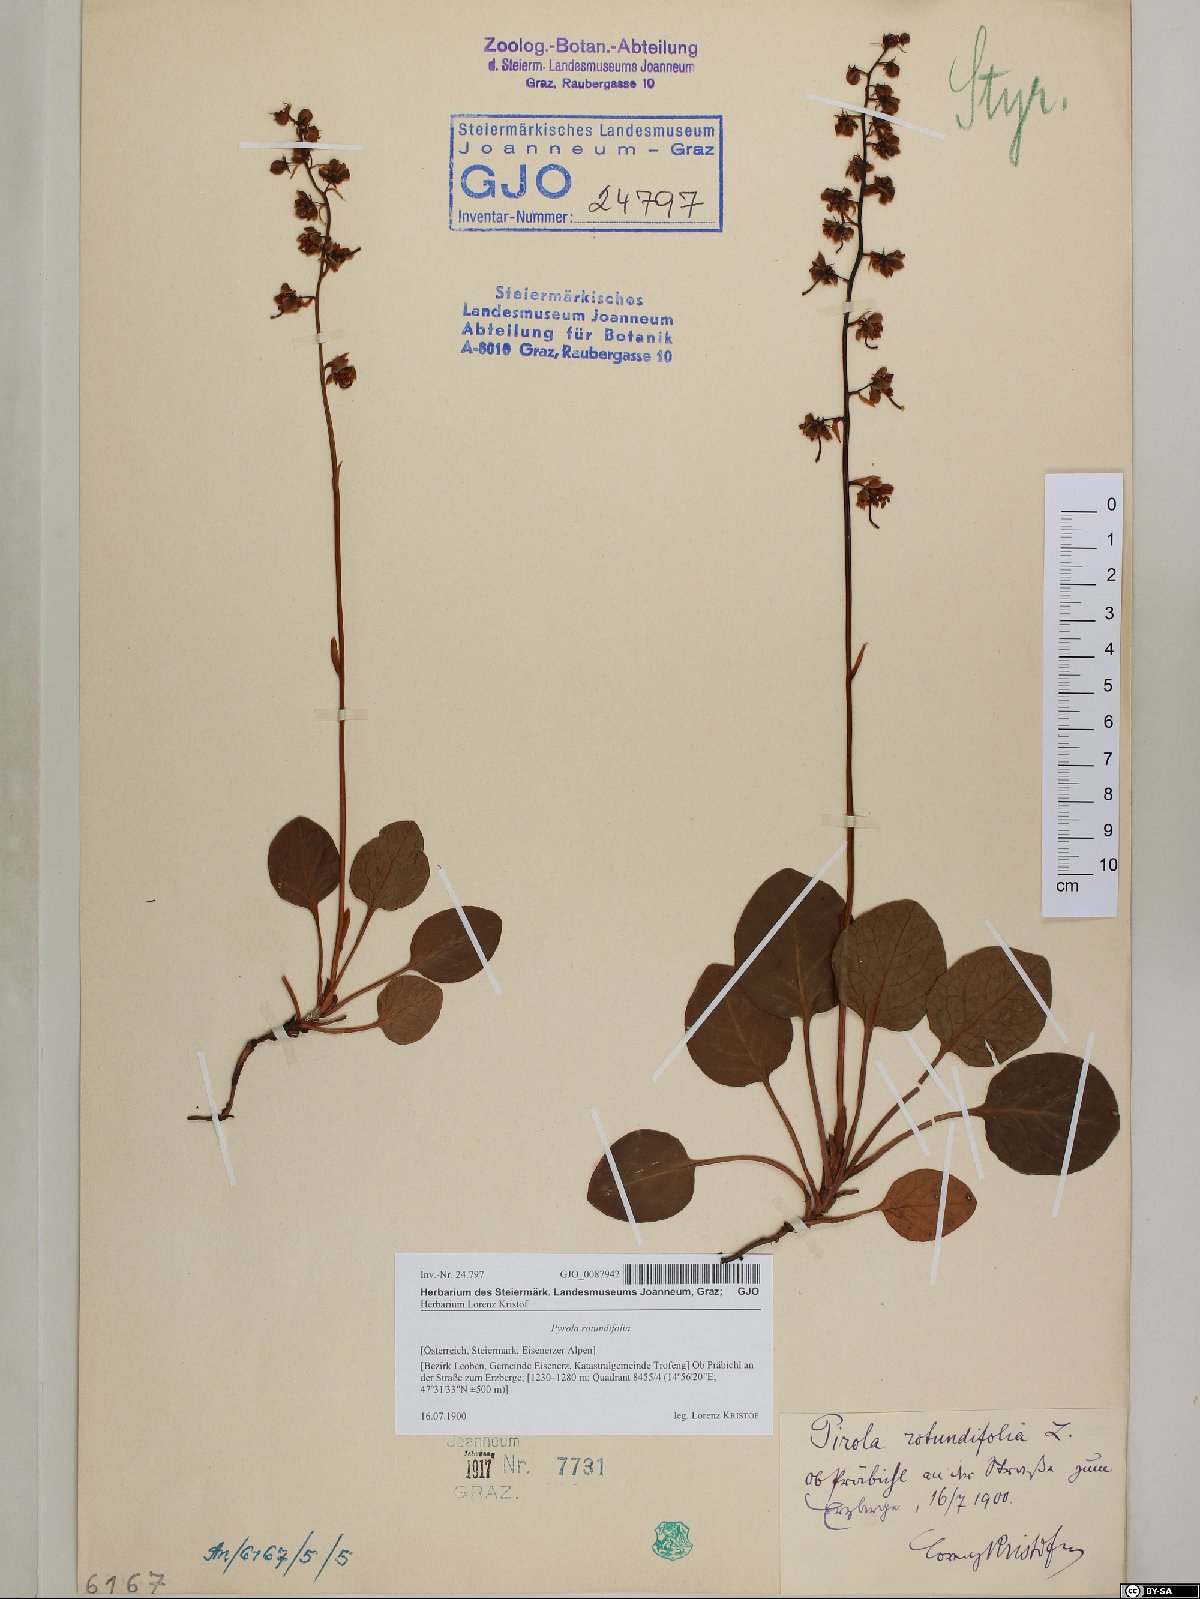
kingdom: Plantae
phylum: Tracheophyta
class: Magnoliopsida
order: Ericales
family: Ericaceae
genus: Pyrola
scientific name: Pyrola rotundifolia
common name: Round-leaved wintergreen
